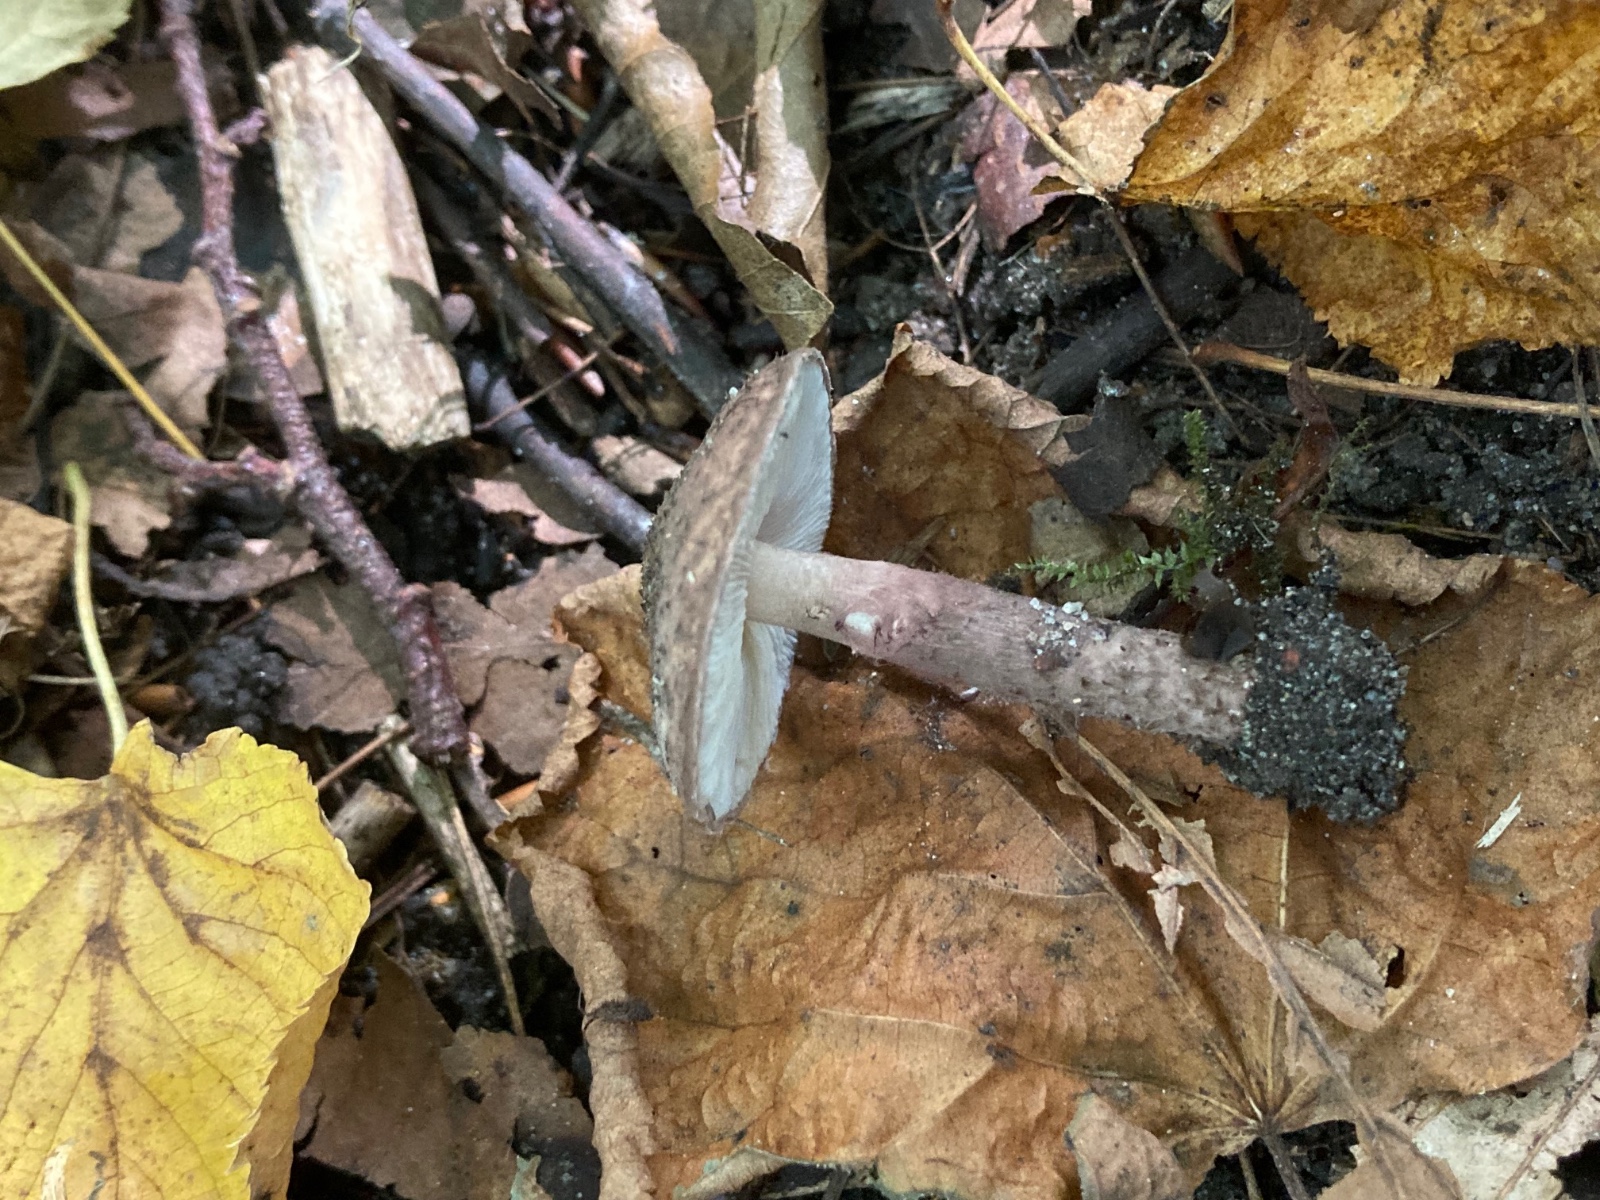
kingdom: Fungi
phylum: Basidiomycota
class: Agaricomycetes
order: Agaricales
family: Agaricaceae
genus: Lepiota
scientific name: Lepiota fuscovinacea
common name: vinrød parasolhat
